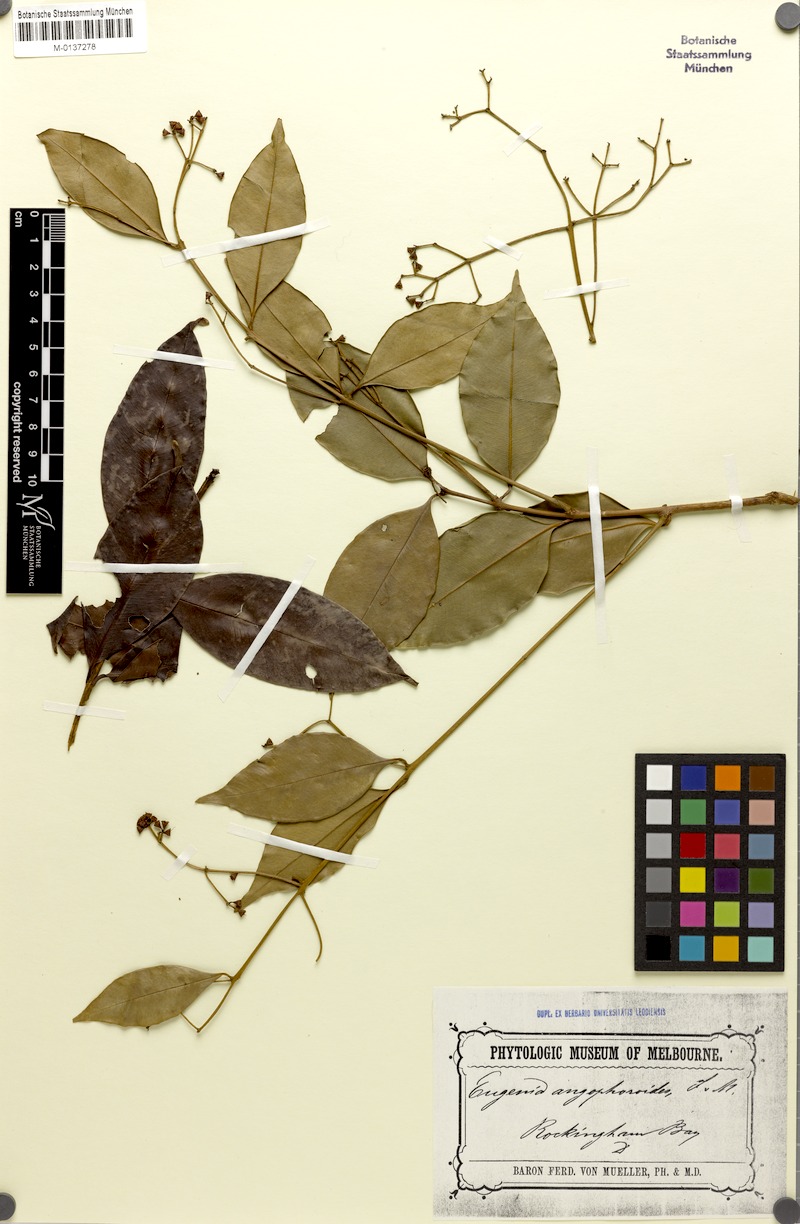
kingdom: Plantae
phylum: Tracheophyta
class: Magnoliopsida
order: Myrtales
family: Myrtaceae
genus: Syzygium
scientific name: Syzygium angophoroides
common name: Swamp satinash
